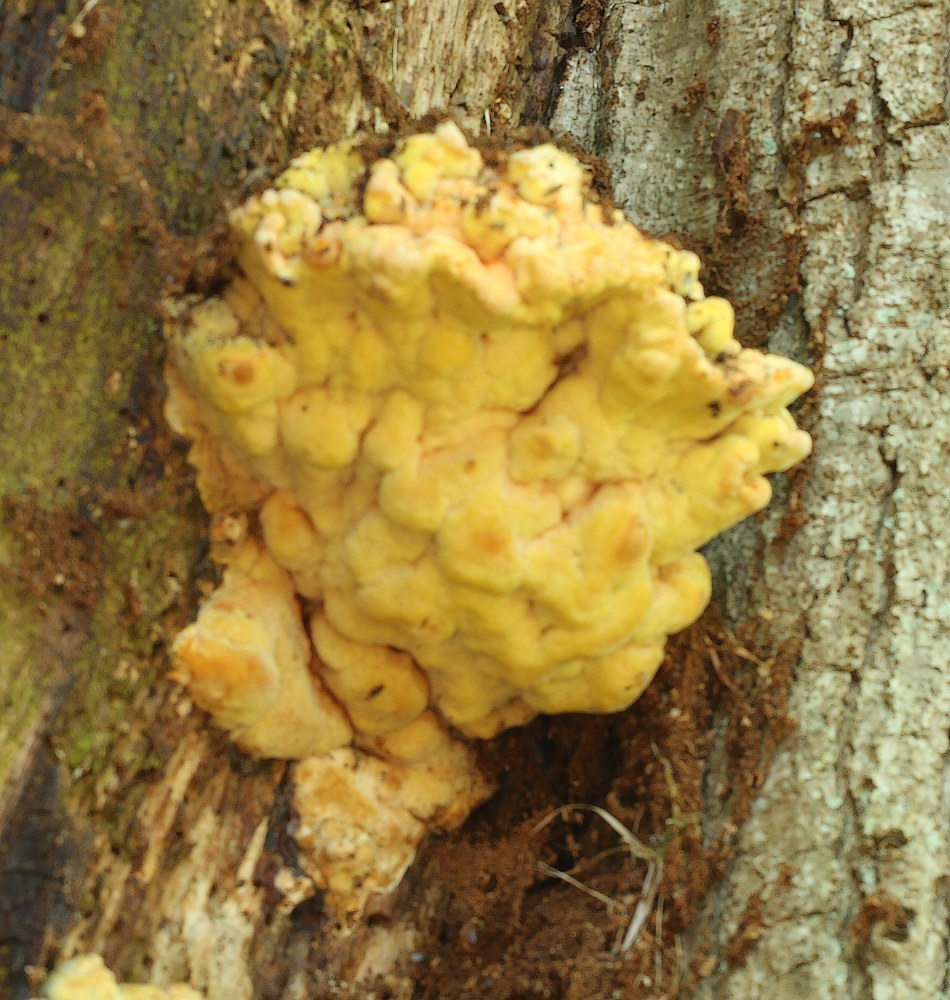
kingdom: Fungi
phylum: Basidiomycota
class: Agaricomycetes
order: Polyporales
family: Laetiporaceae
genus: Laetiporus
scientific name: Laetiporus sulphureus
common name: svovlporesvamp
